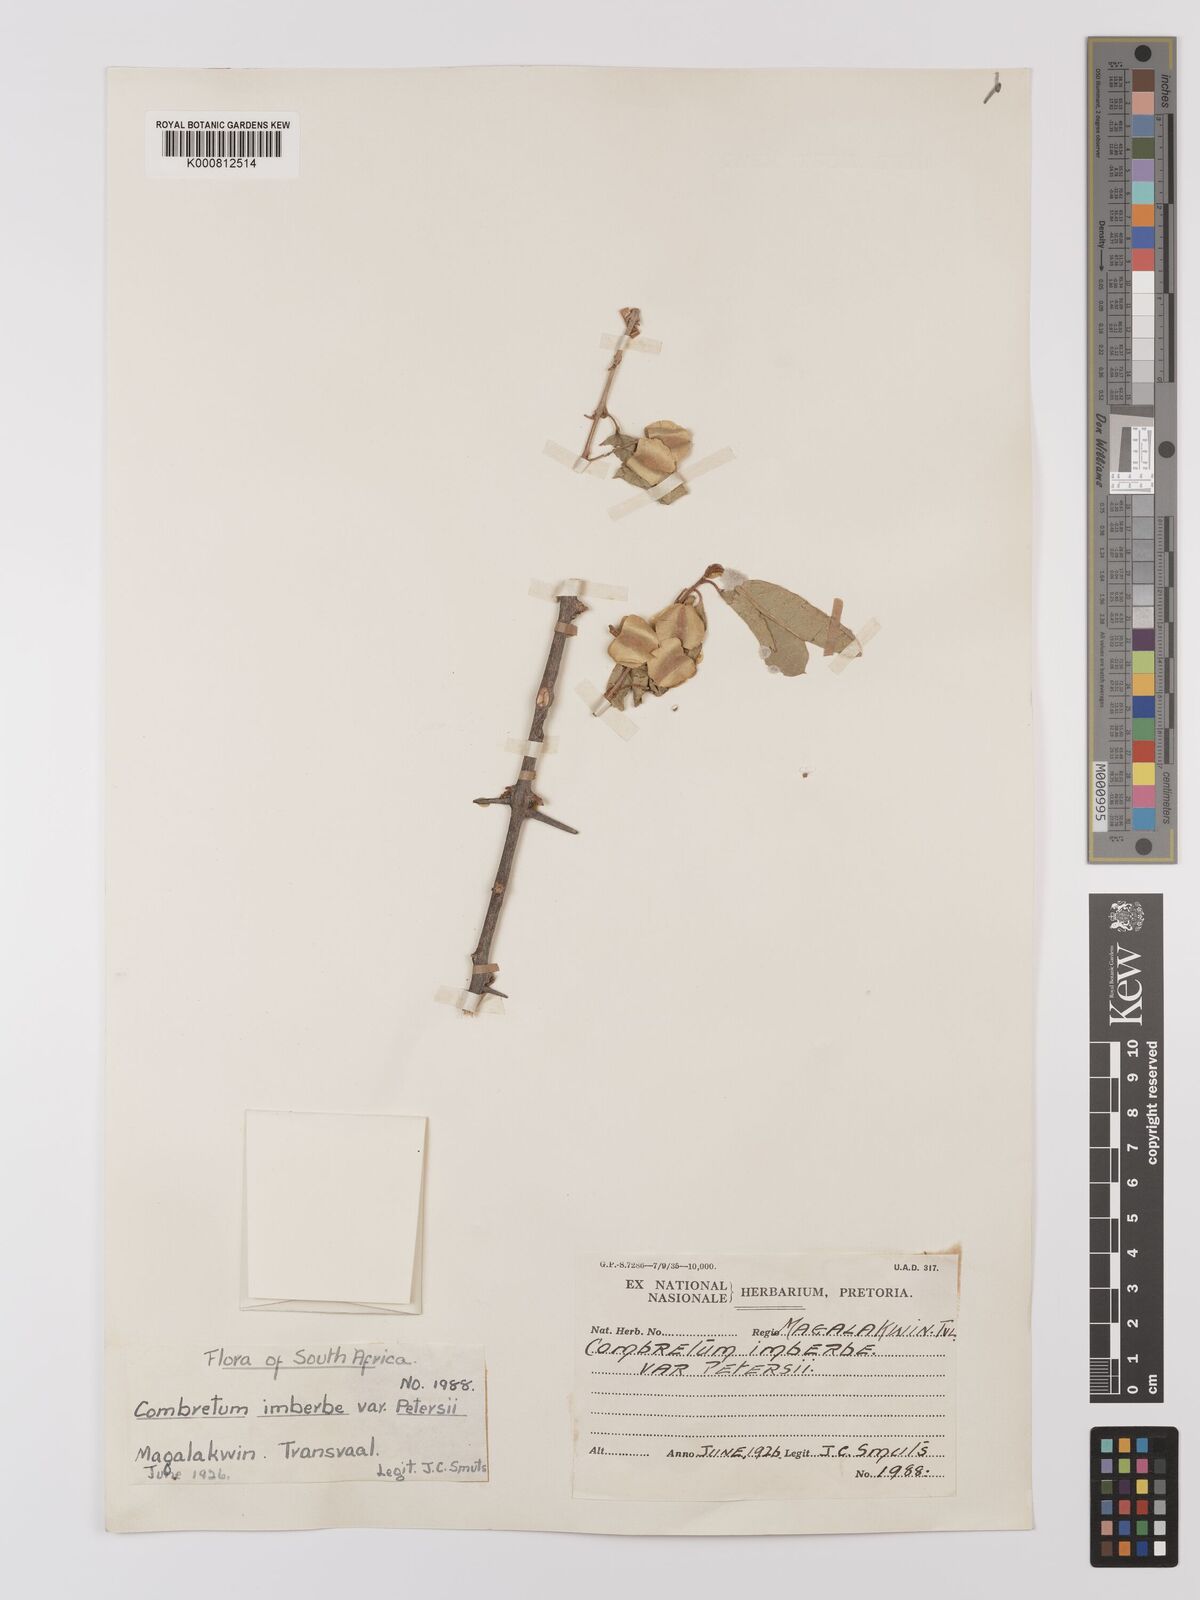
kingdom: Plantae
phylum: Tracheophyta
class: Magnoliopsida
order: Myrtales
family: Combretaceae
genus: Combretum
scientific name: Combretum imberbe
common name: Leadwood
